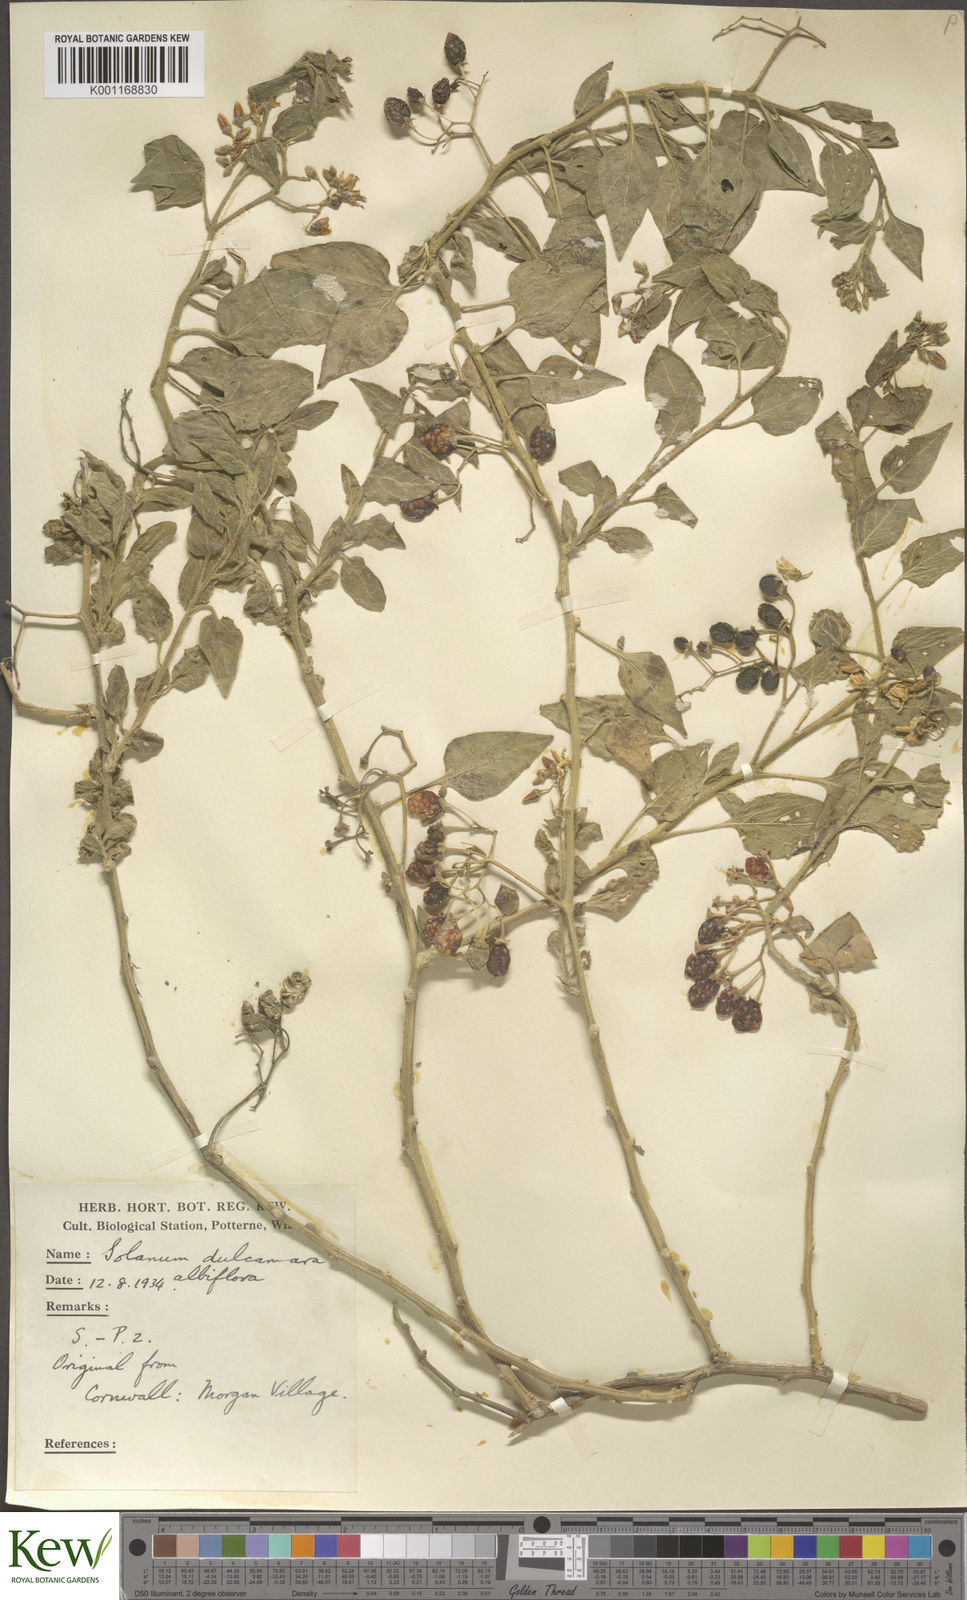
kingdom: Plantae
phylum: Tracheophyta
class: Magnoliopsida
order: Solanales
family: Solanaceae
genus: Solanum
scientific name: Solanum dulcamara
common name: Climbing nightshade
